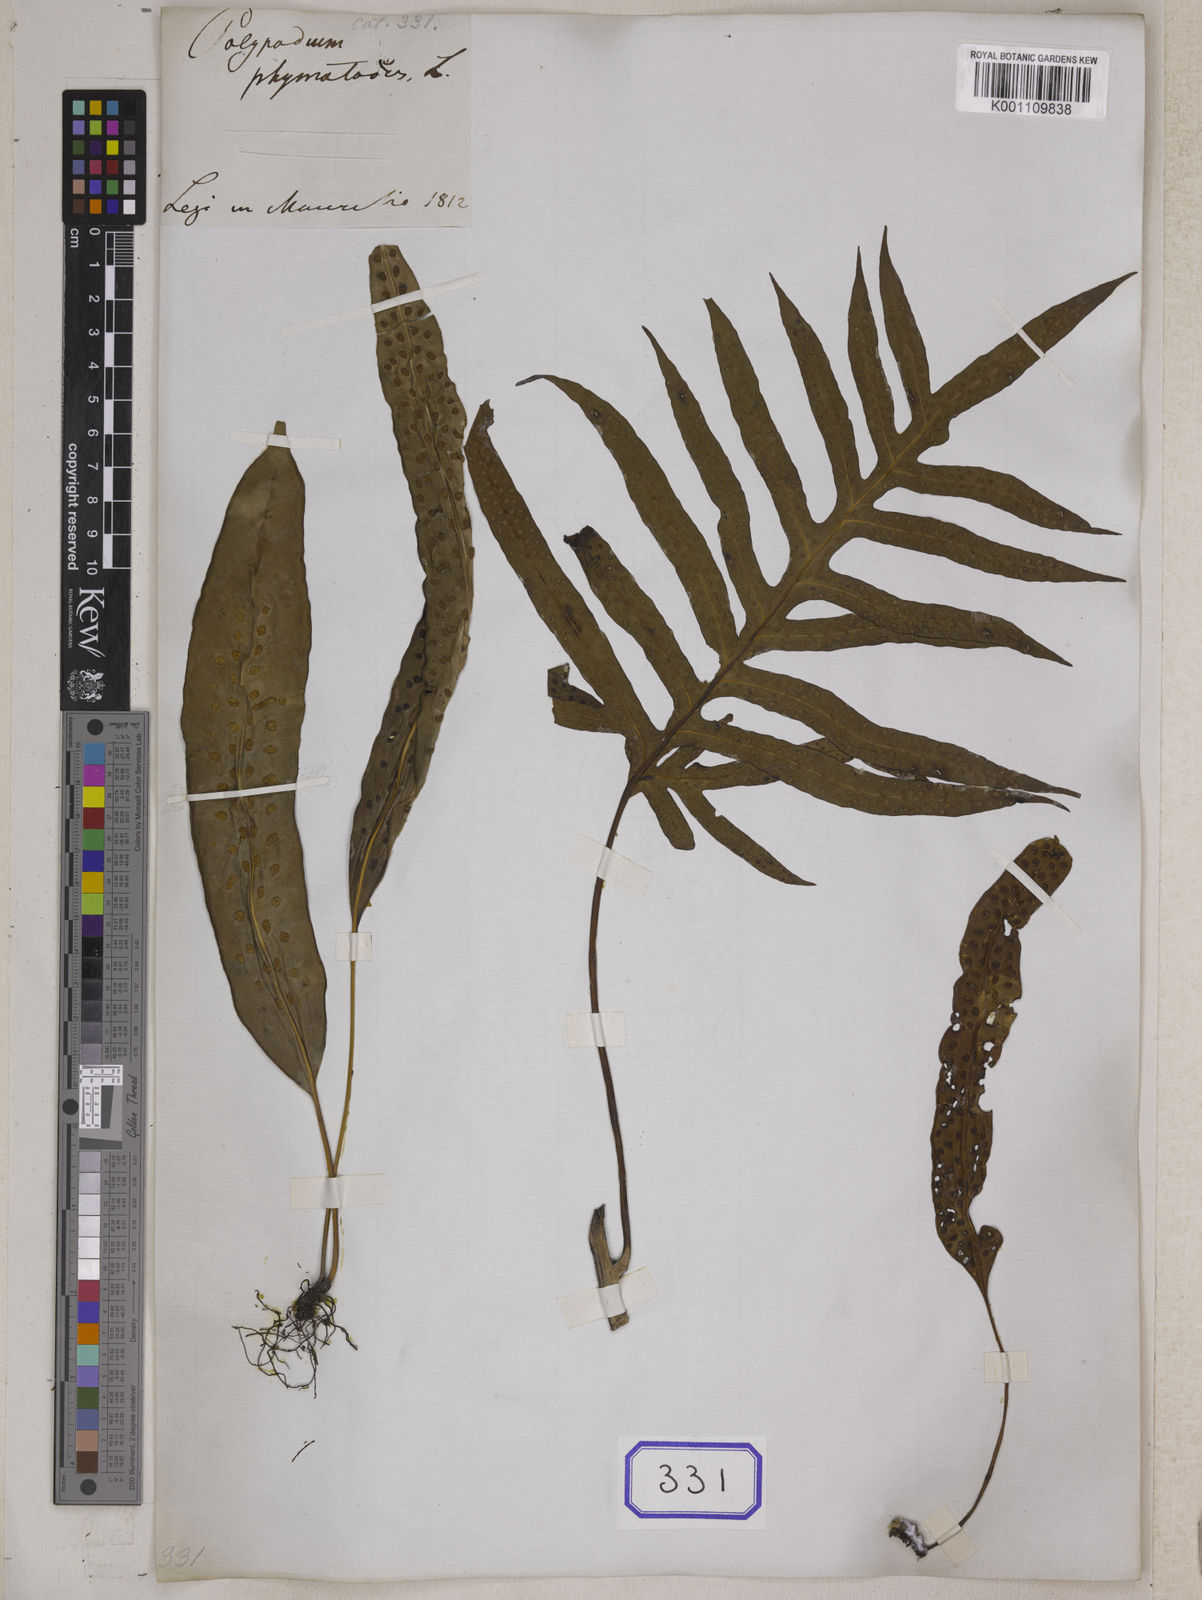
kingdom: Plantae
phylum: Tracheophyta
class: Polypodiopsida
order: Polypodiales
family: Polypodiaceae
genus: Microsorum
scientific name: Microsorum scolopendria
